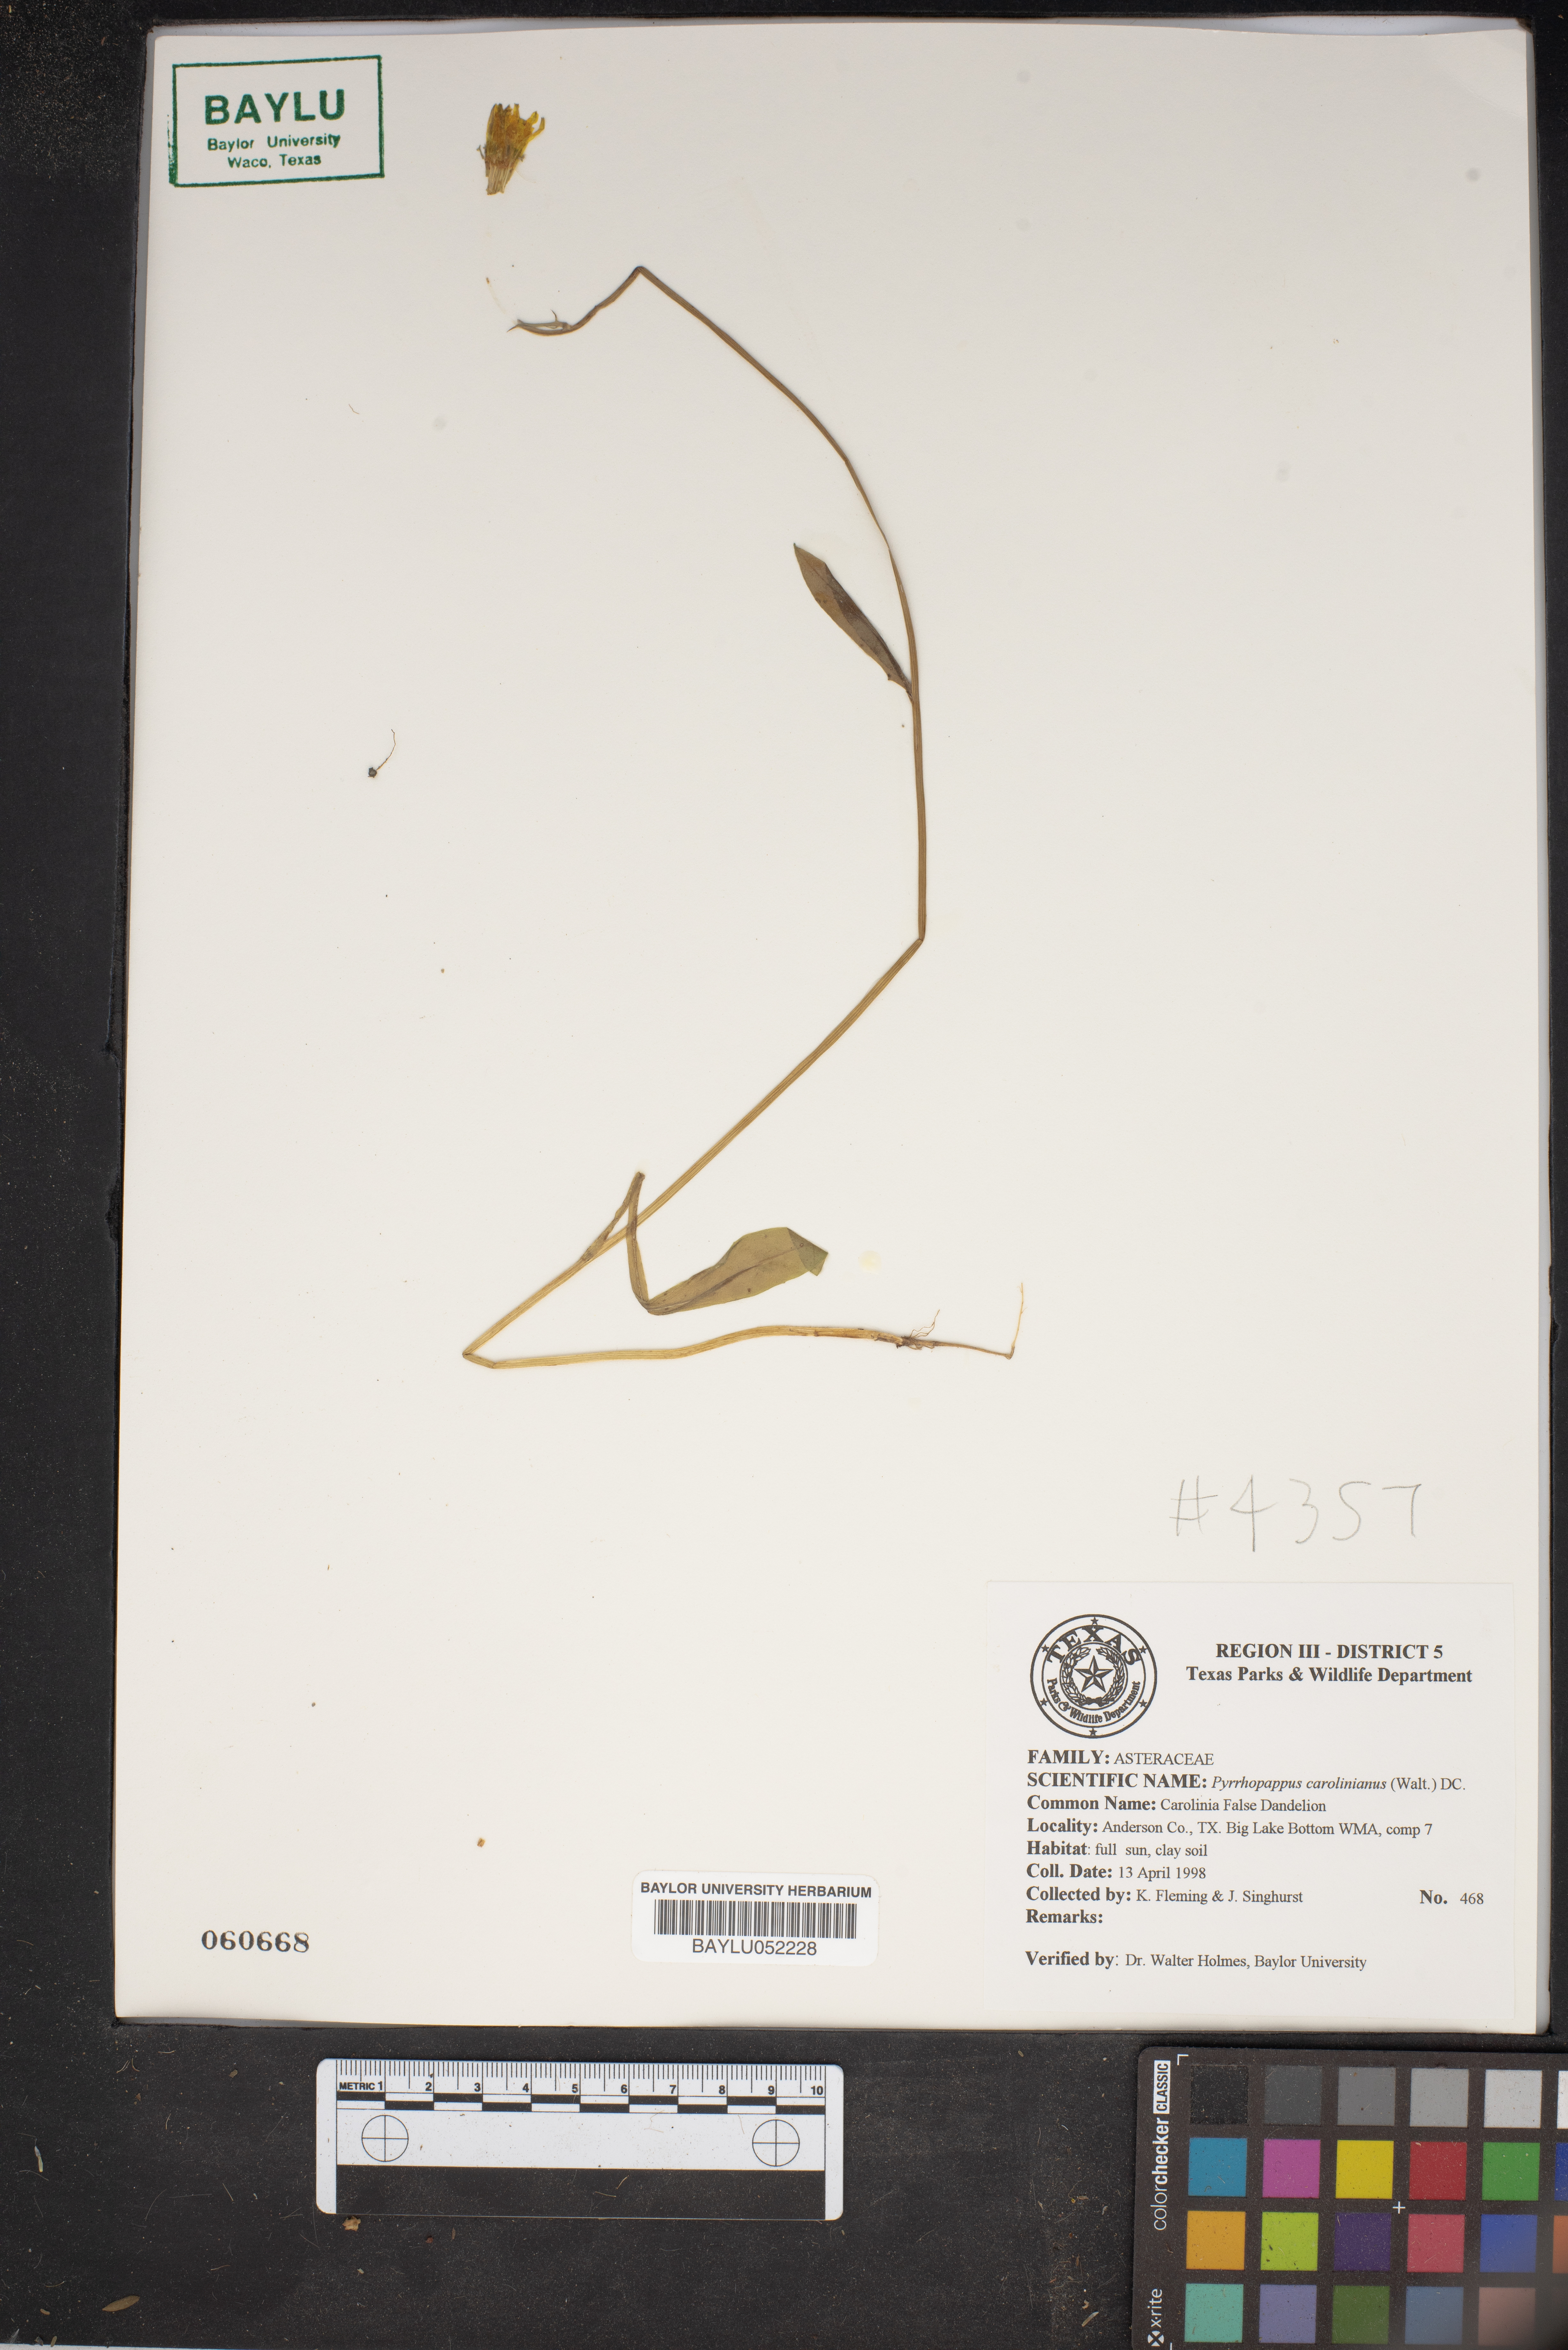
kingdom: Plantae
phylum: Tracheophyta
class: Magnoliopsida
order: Asterales
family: Asteraceae
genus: Pyrrhopappus
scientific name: Pyrrhopappus carolinianus
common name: Carolina desert-chicory
